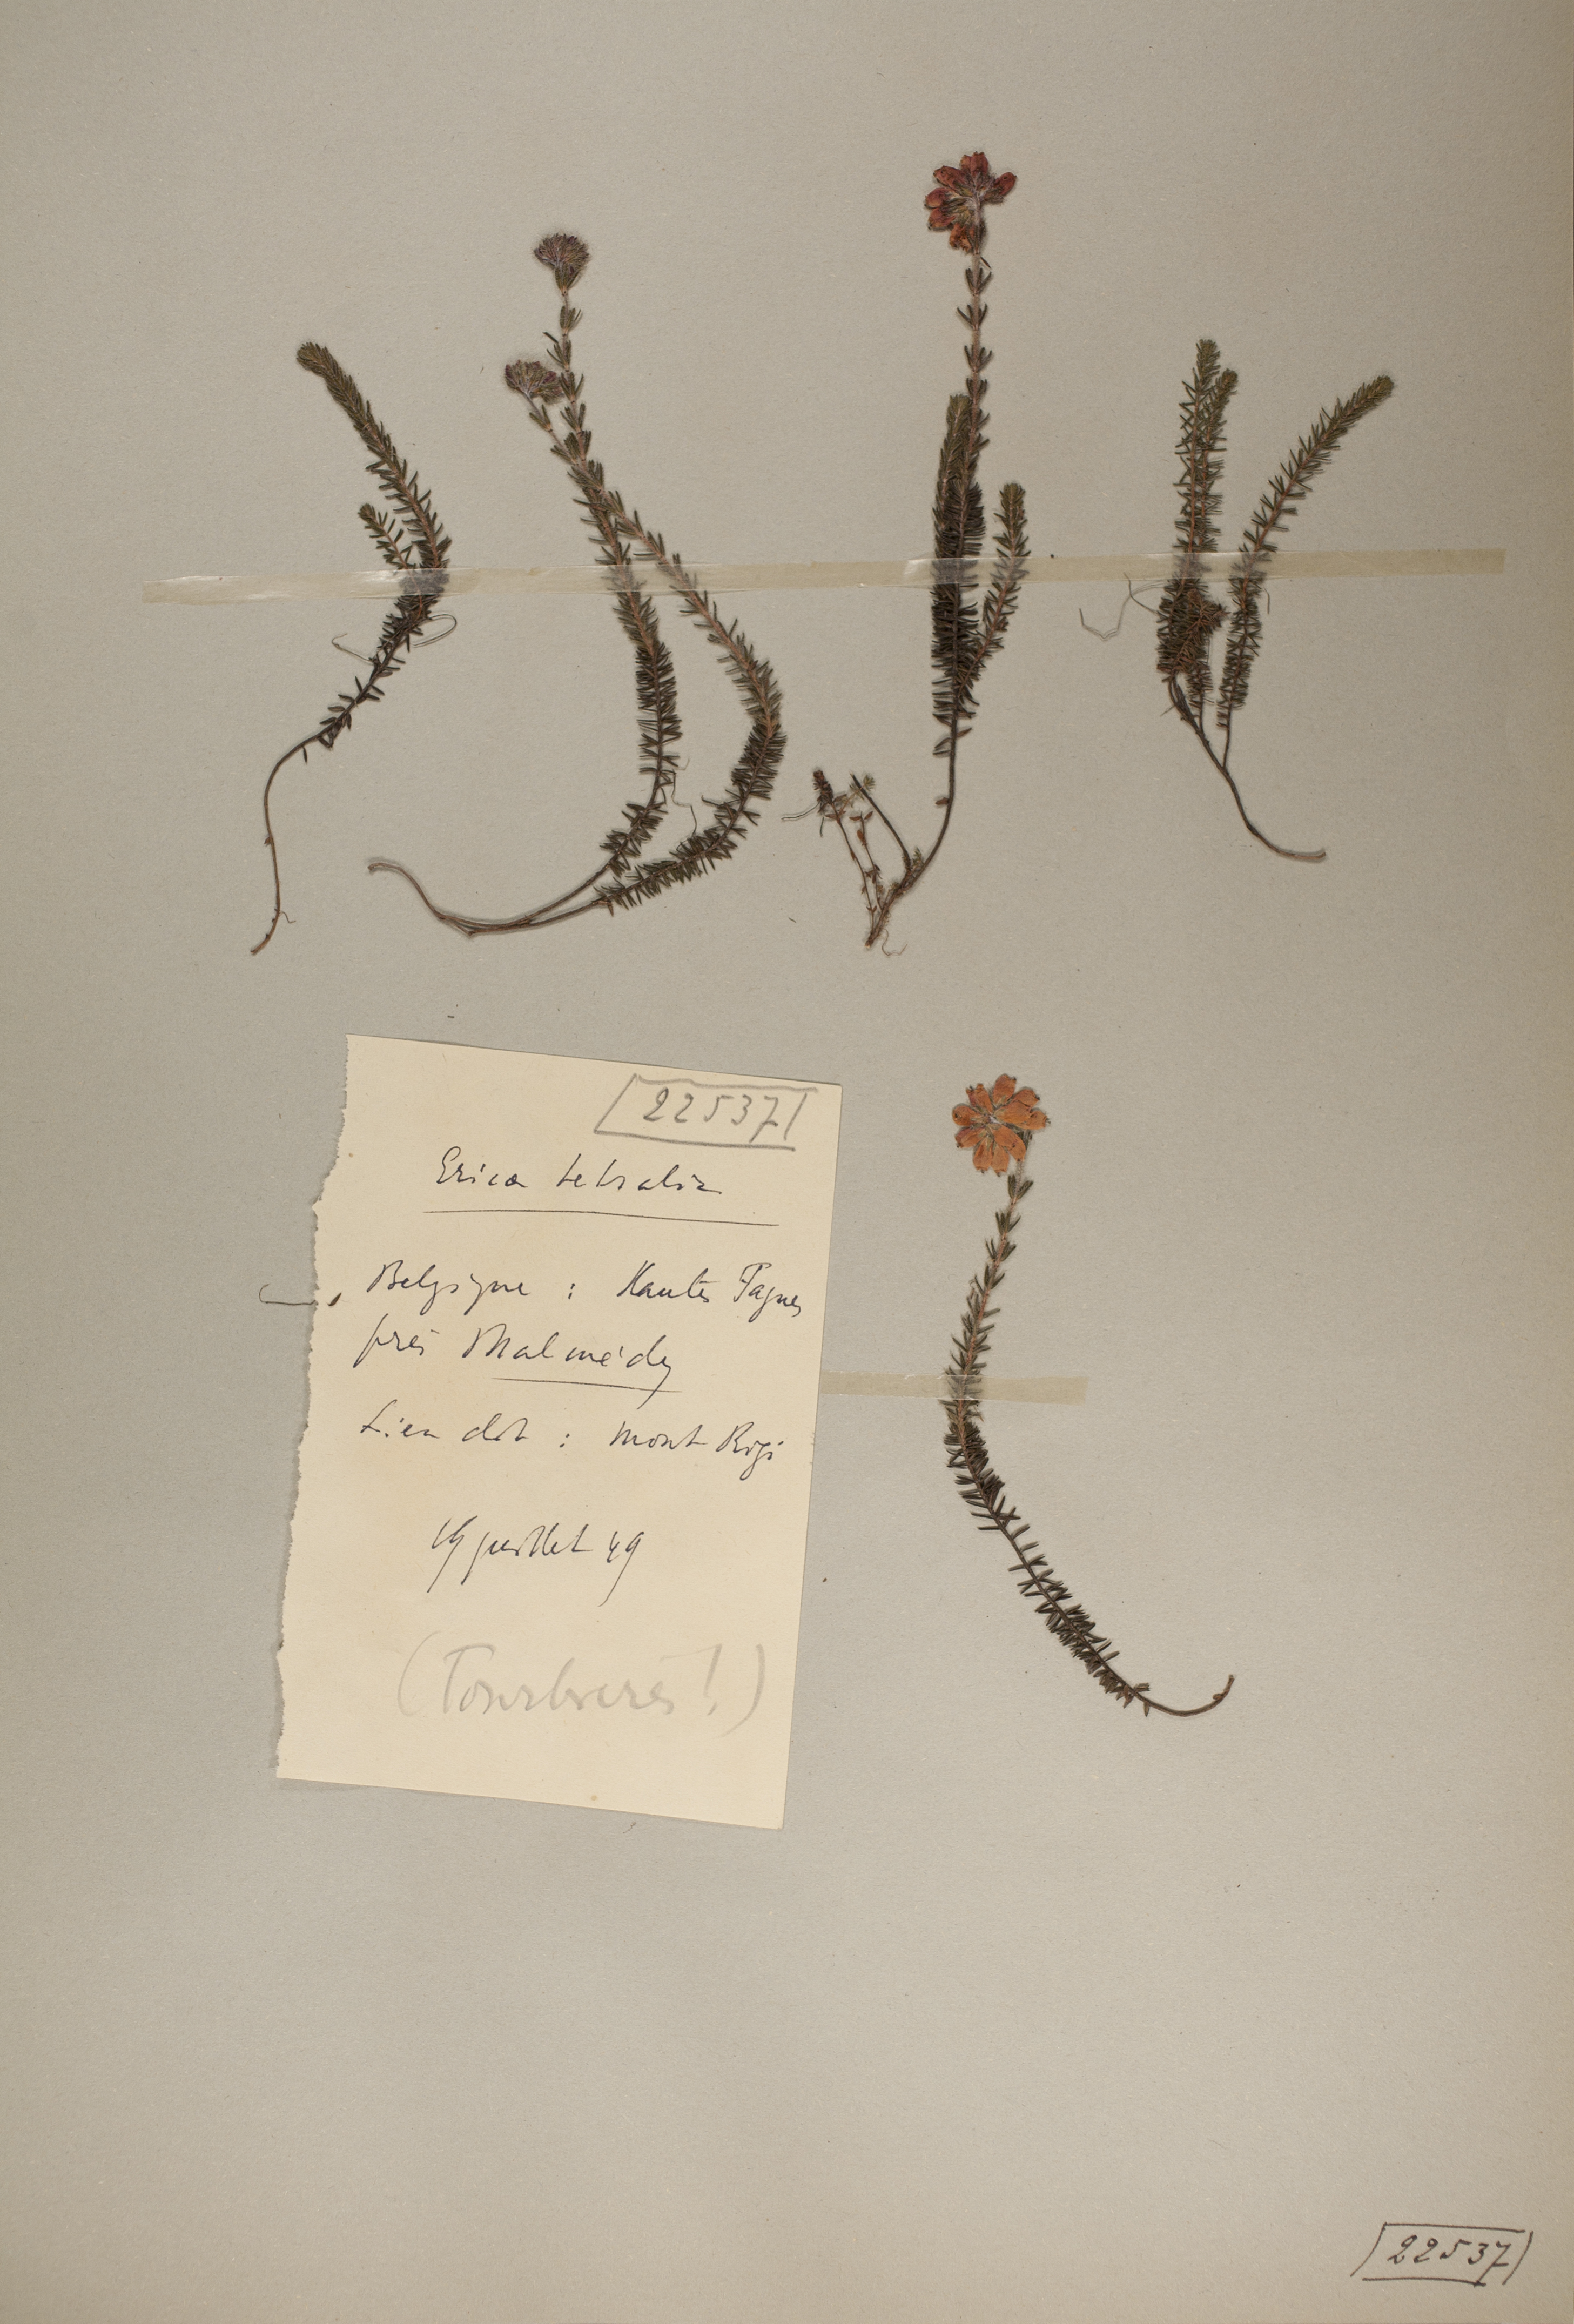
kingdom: Plantae
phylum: Tracheophyta
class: Magnoliopsida
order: Ericales
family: Ericaceae
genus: Erica
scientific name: Erica tetralix
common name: Cross-leaved heath
